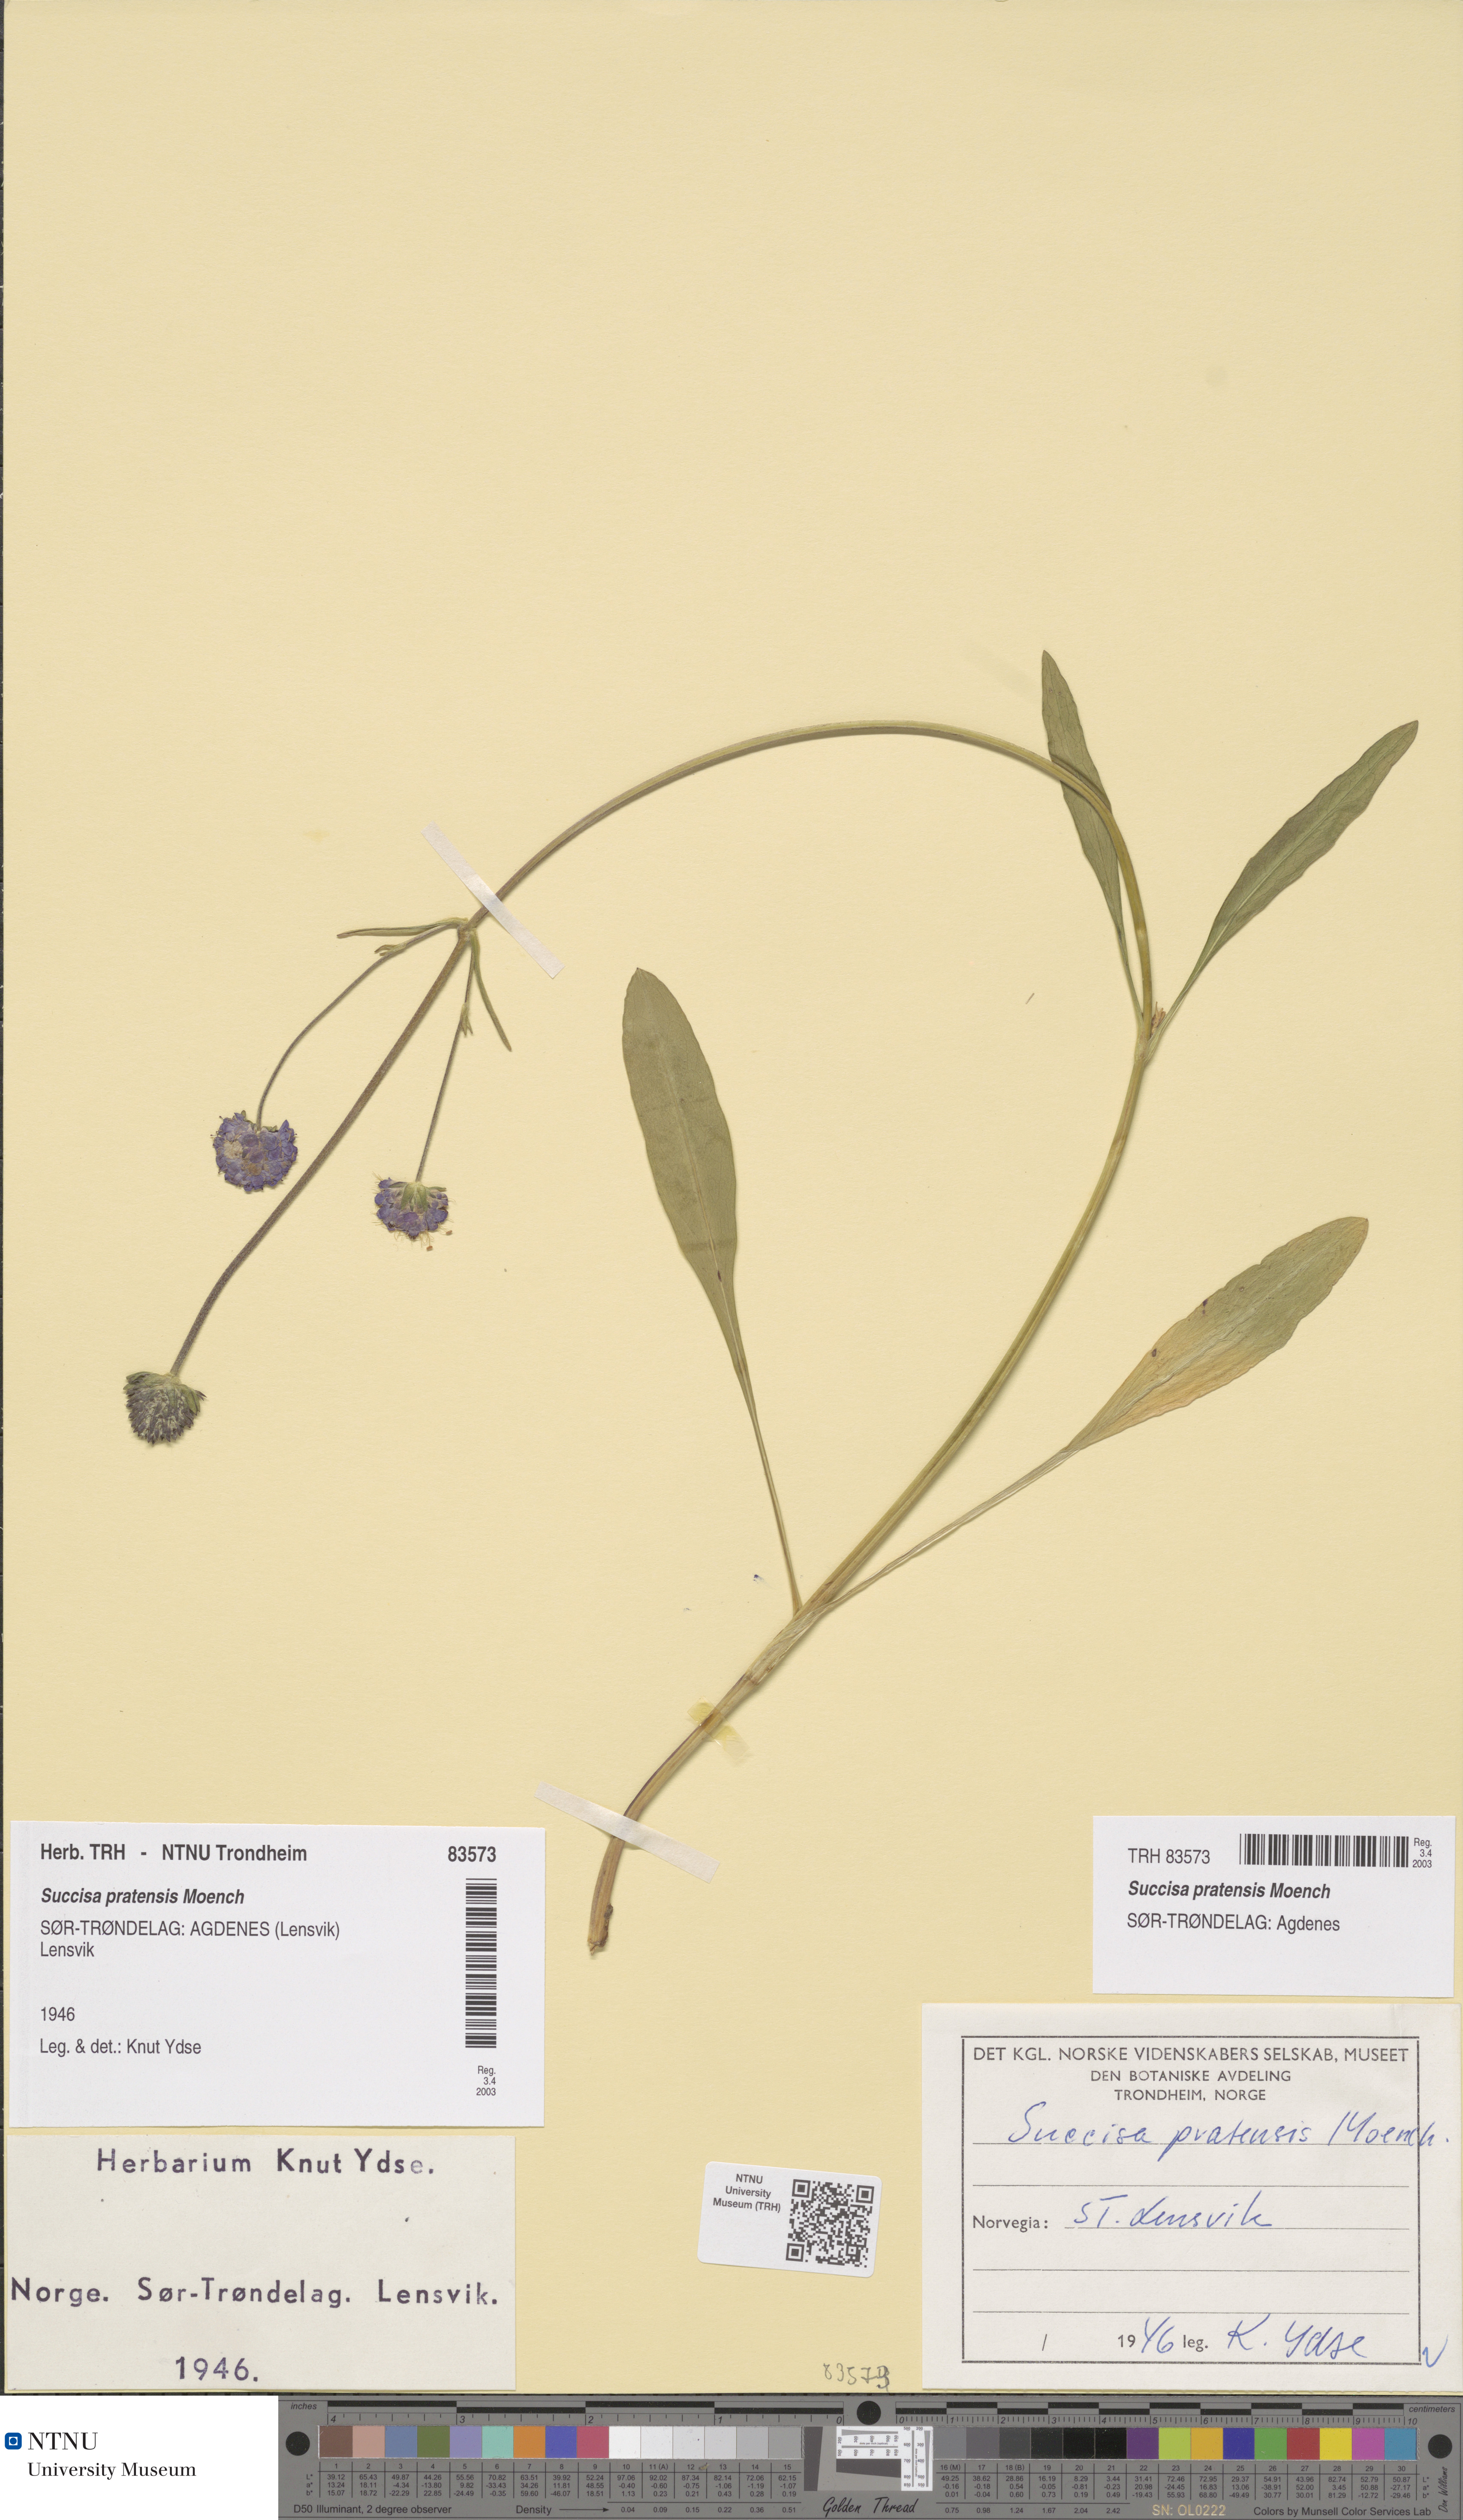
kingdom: Plantae
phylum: Tracheophyta
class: Magnoliopsida
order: Dipsacales
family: Caprifoliaceae
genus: Succisa
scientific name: Succisa pratensis
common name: Devil's-bit
